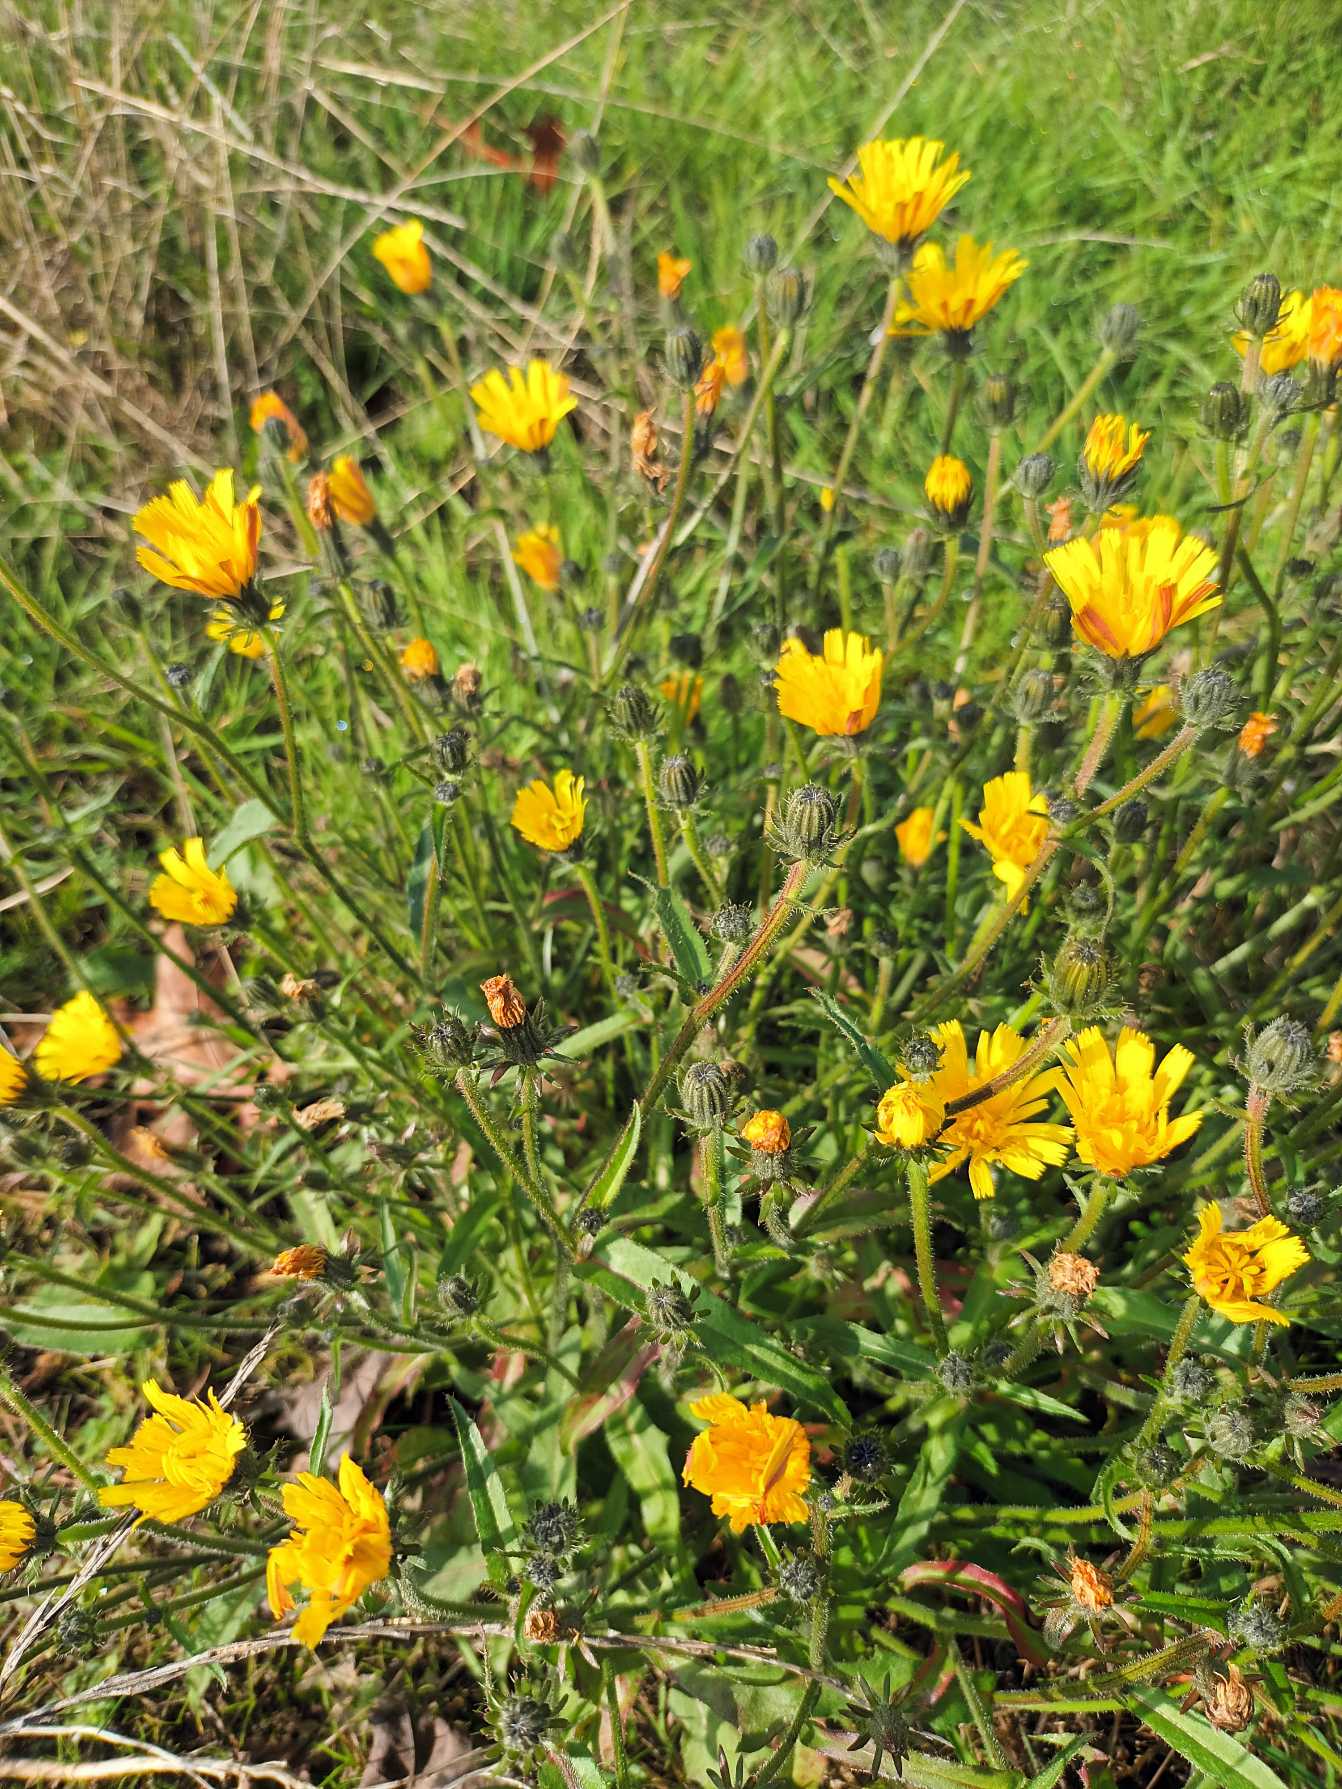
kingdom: Plantae
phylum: Tracheophyta
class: Magnoliopsida
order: Asterales
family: Asteraceae
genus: Picris
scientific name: Picris hieracioides
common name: Ru bittermælk
